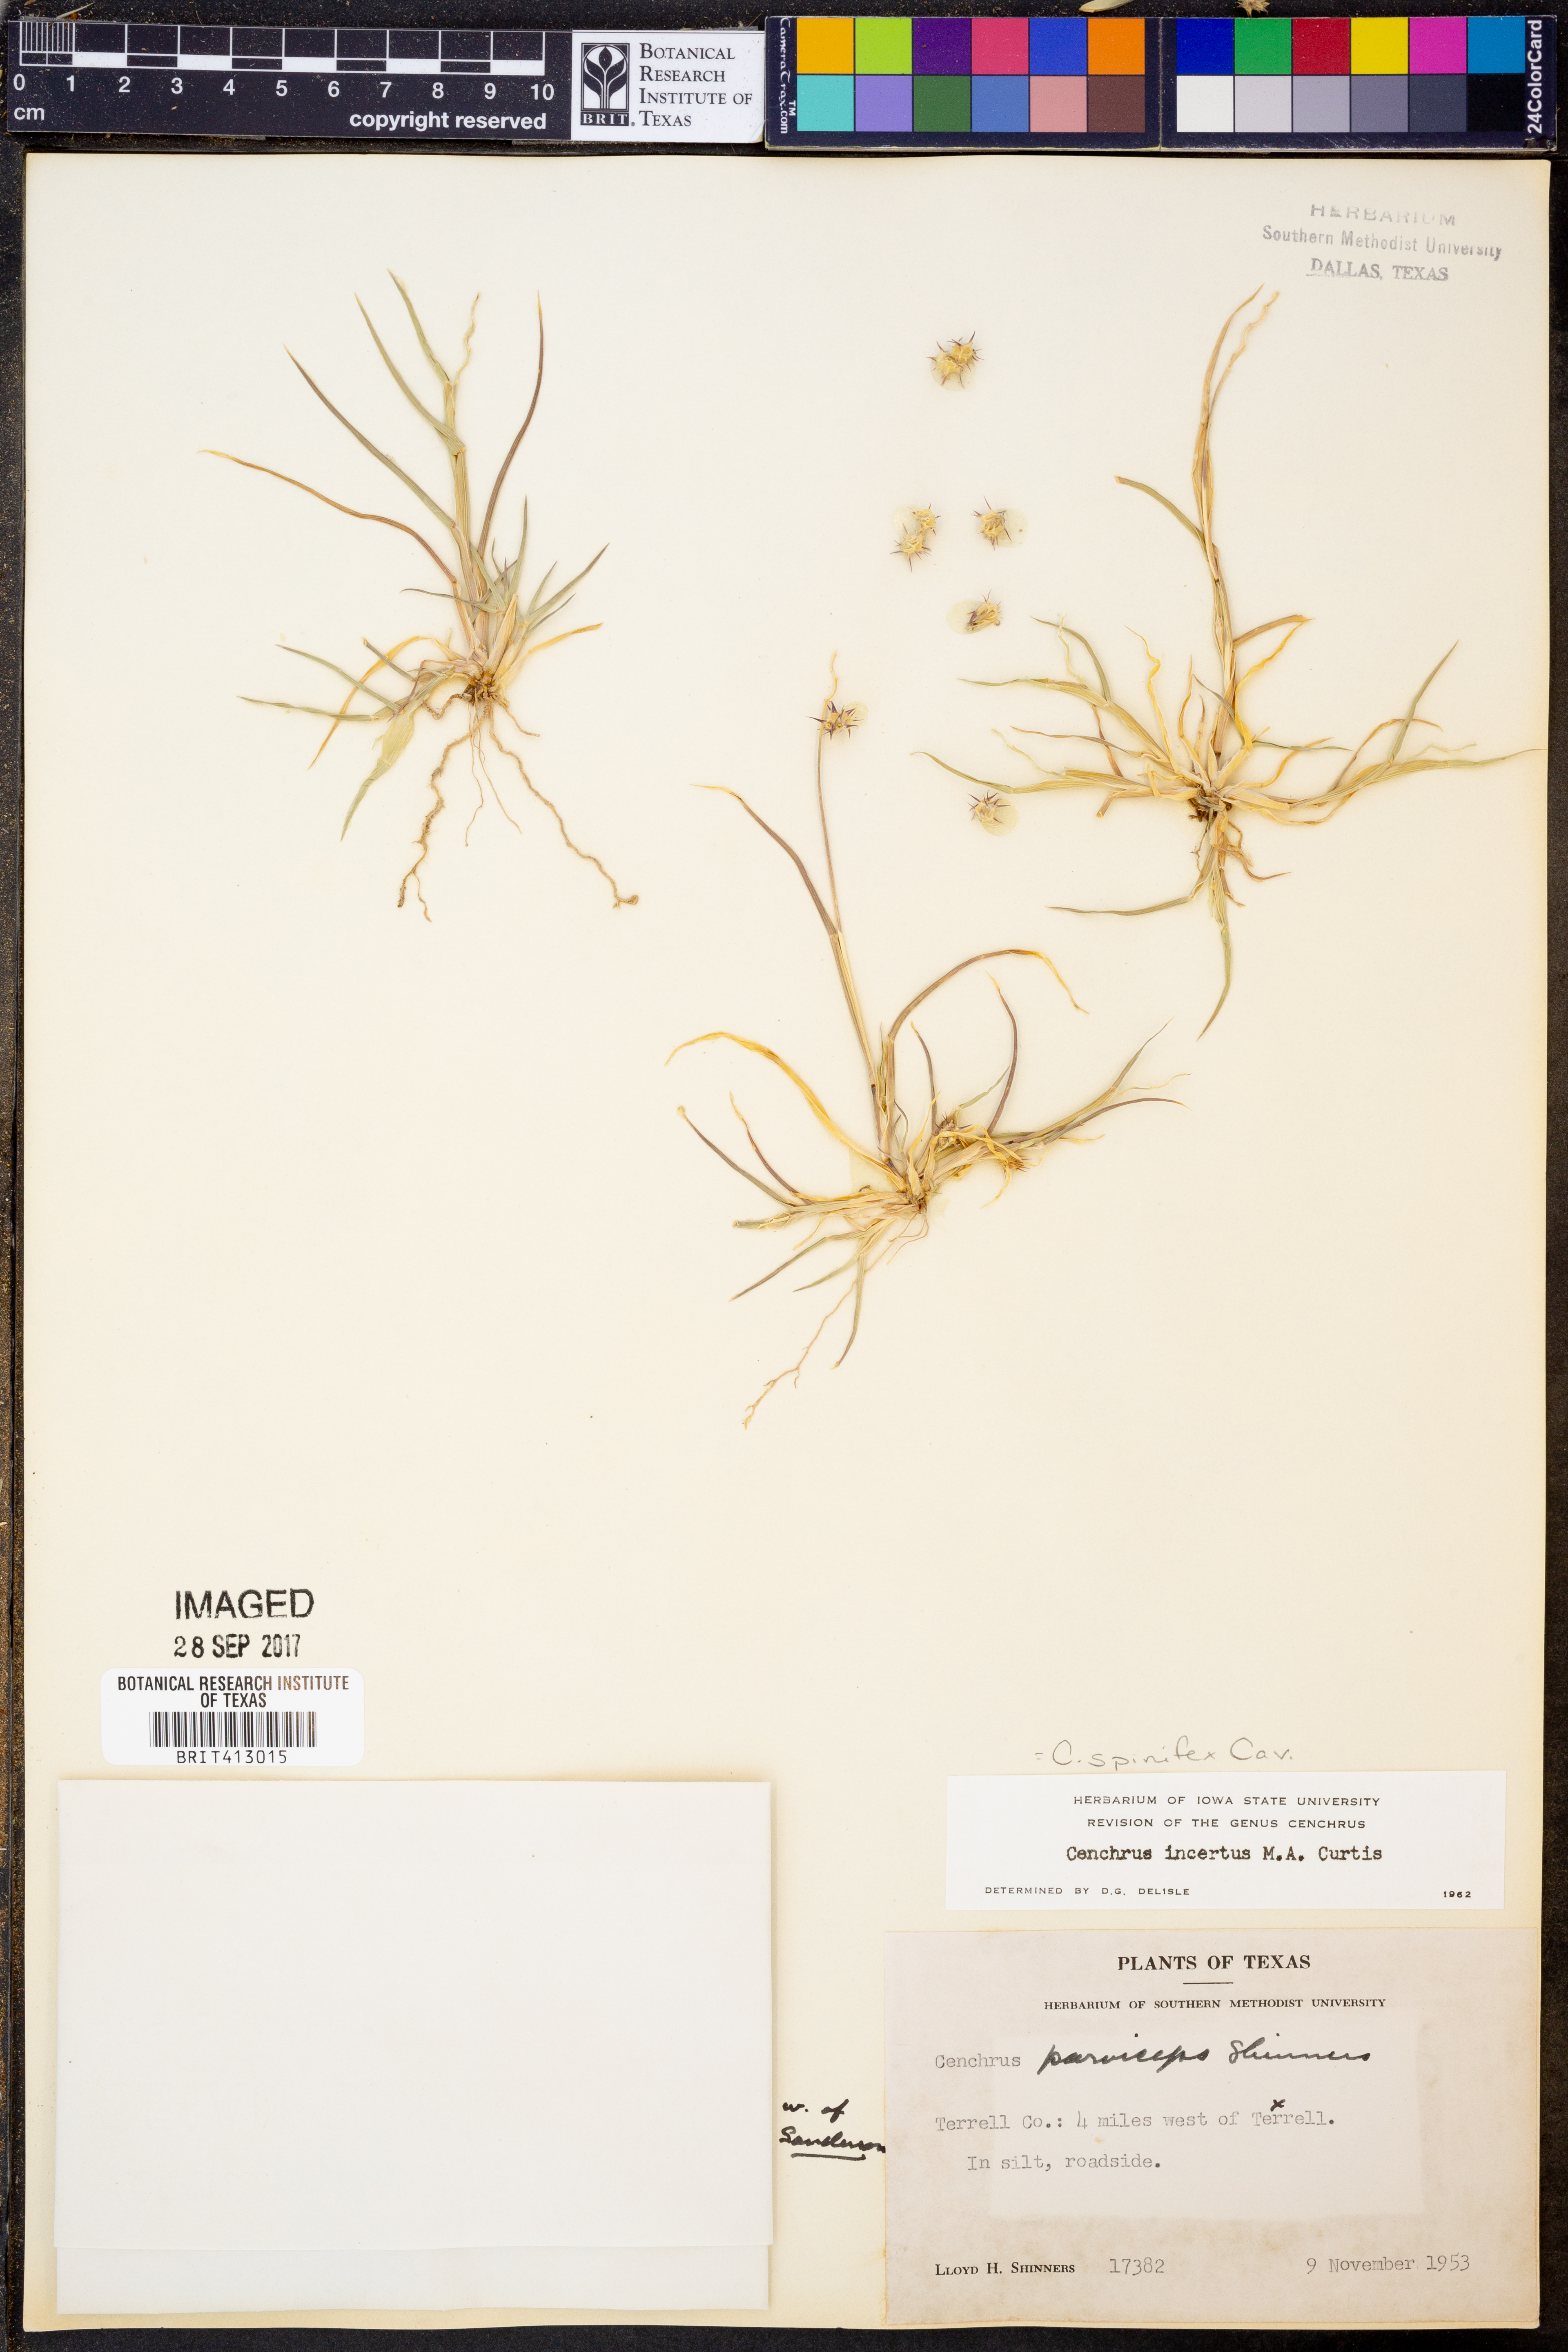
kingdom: Plantae
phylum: Tracheophyta
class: Liliopsida
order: Poales
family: Poaceae
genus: Cenchrus
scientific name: Cenchrus spinifex
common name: Coast sandbur
